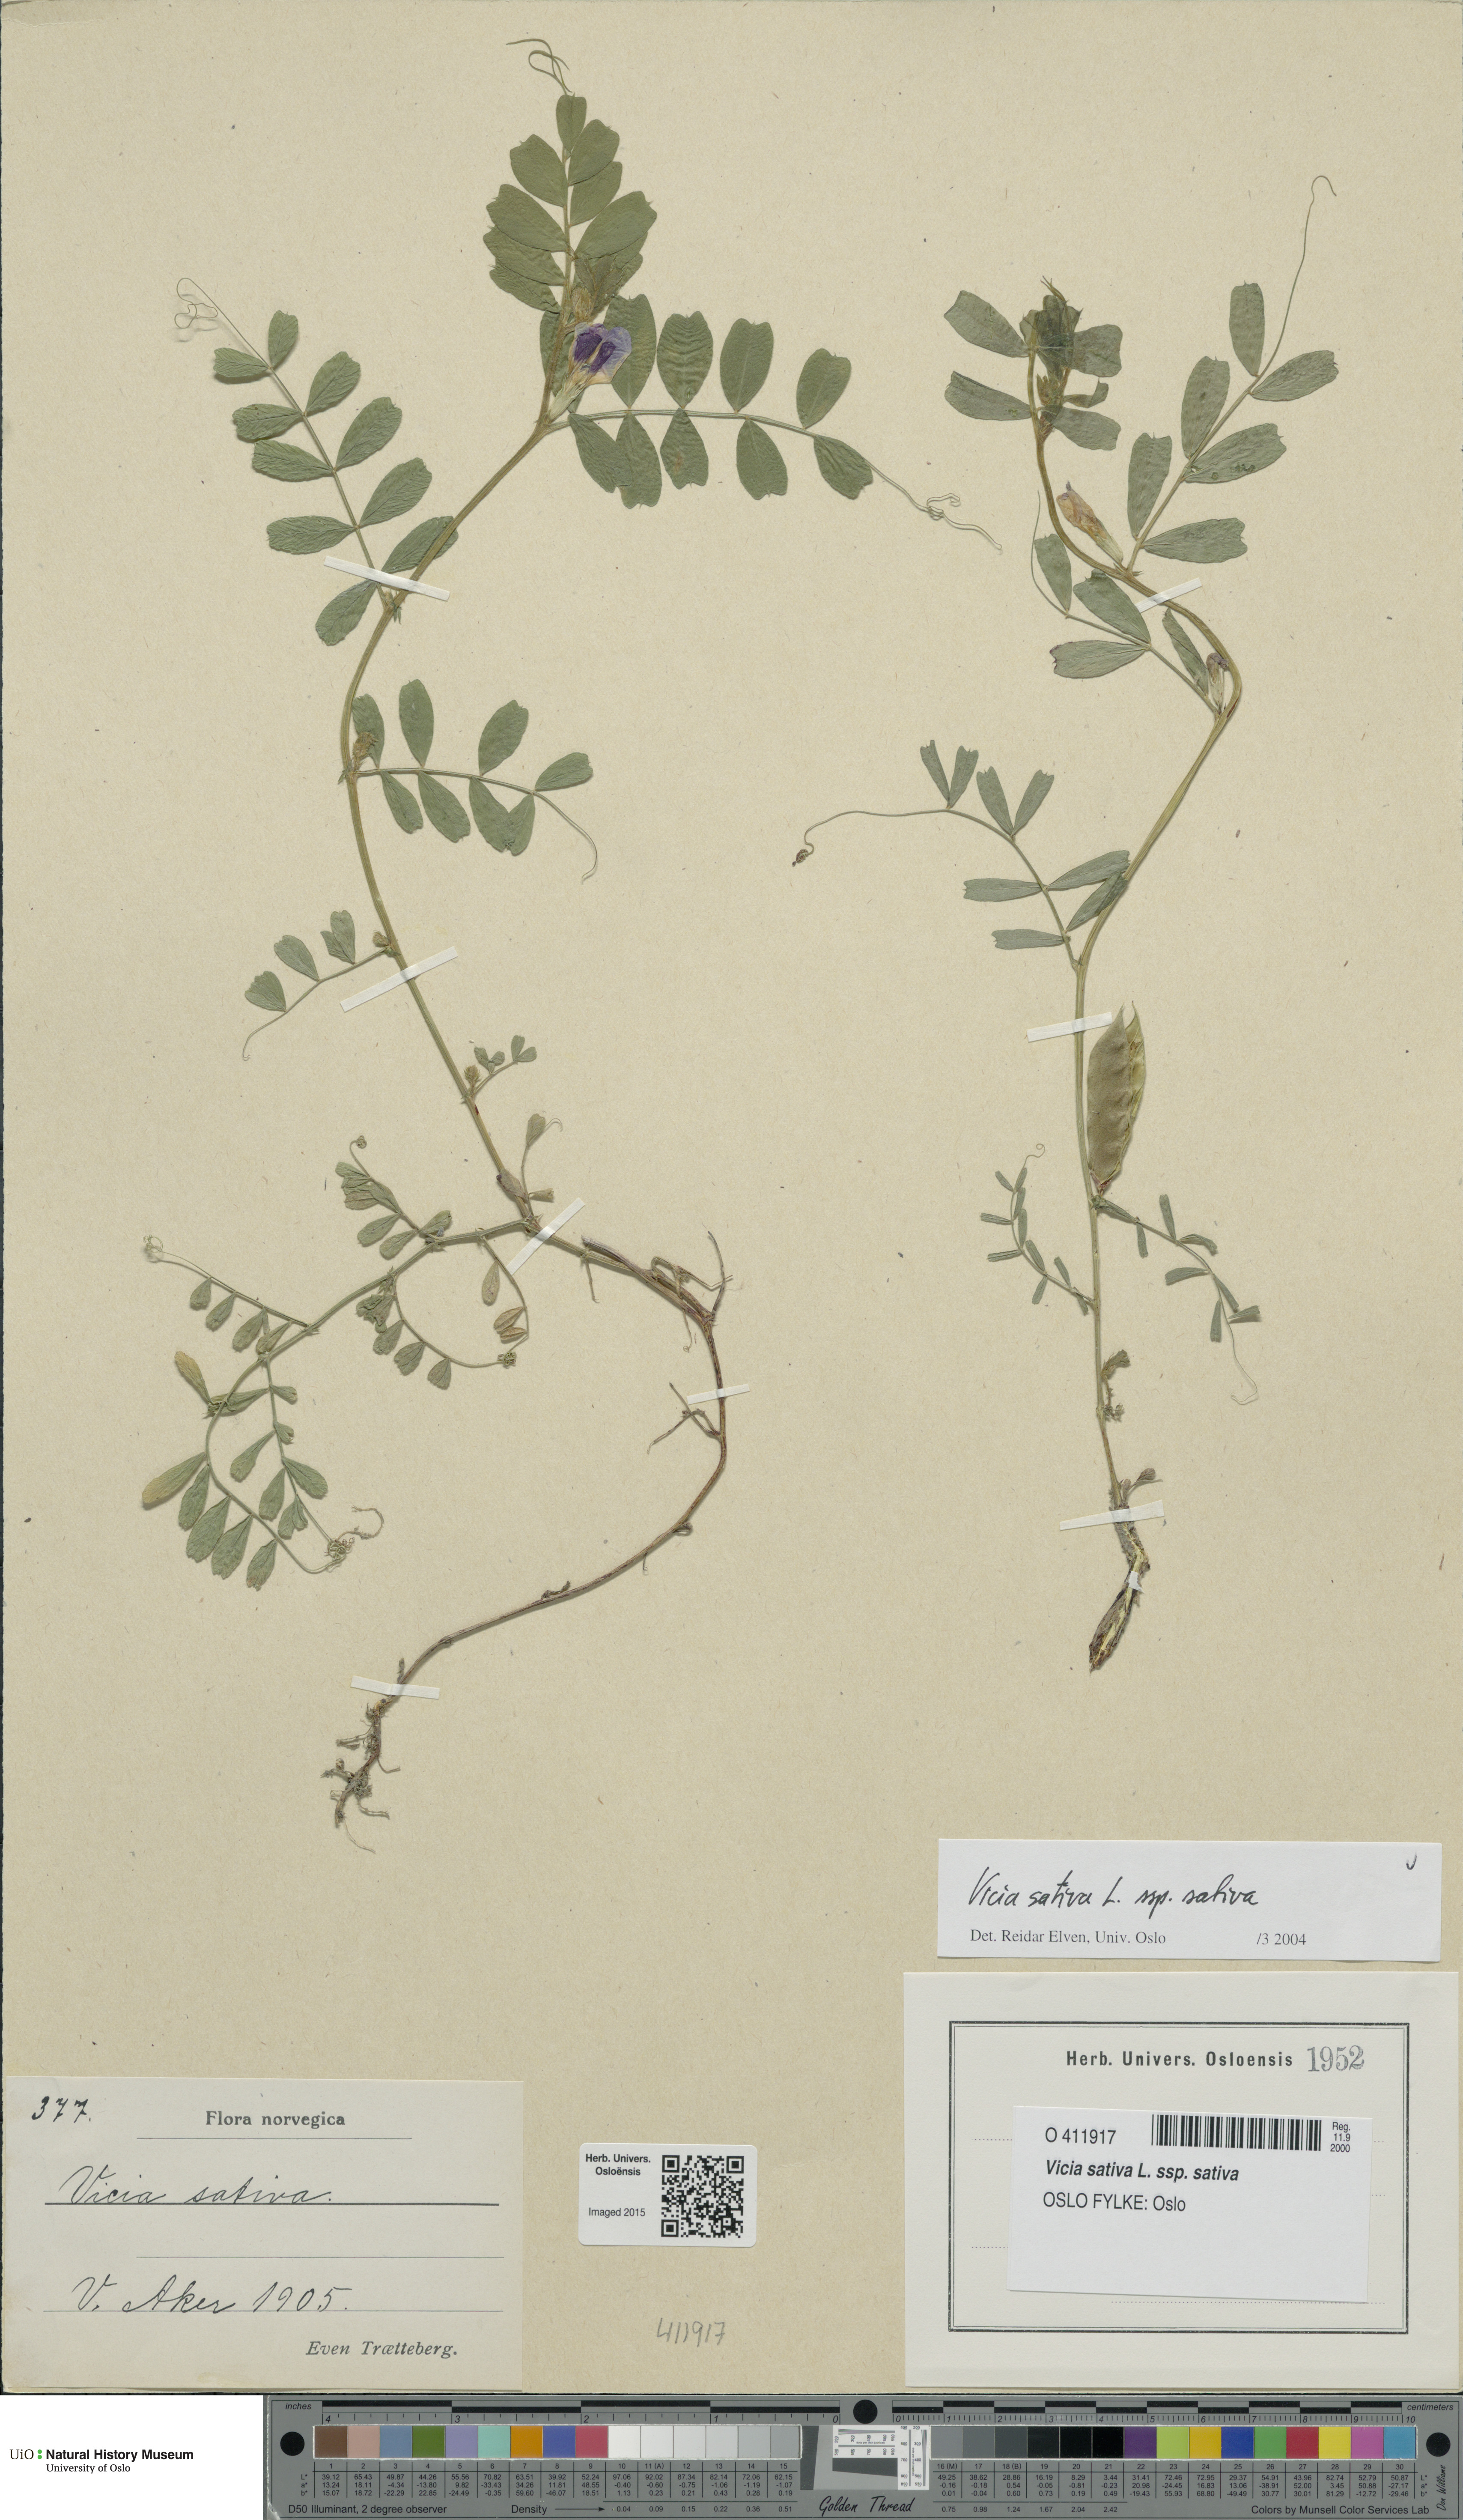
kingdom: Plantae
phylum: Tracheophyta
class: Magnoliopsida
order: Fabales
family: Fabaceae
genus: Vicia
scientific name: Vicia sativa
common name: Garden vetch
